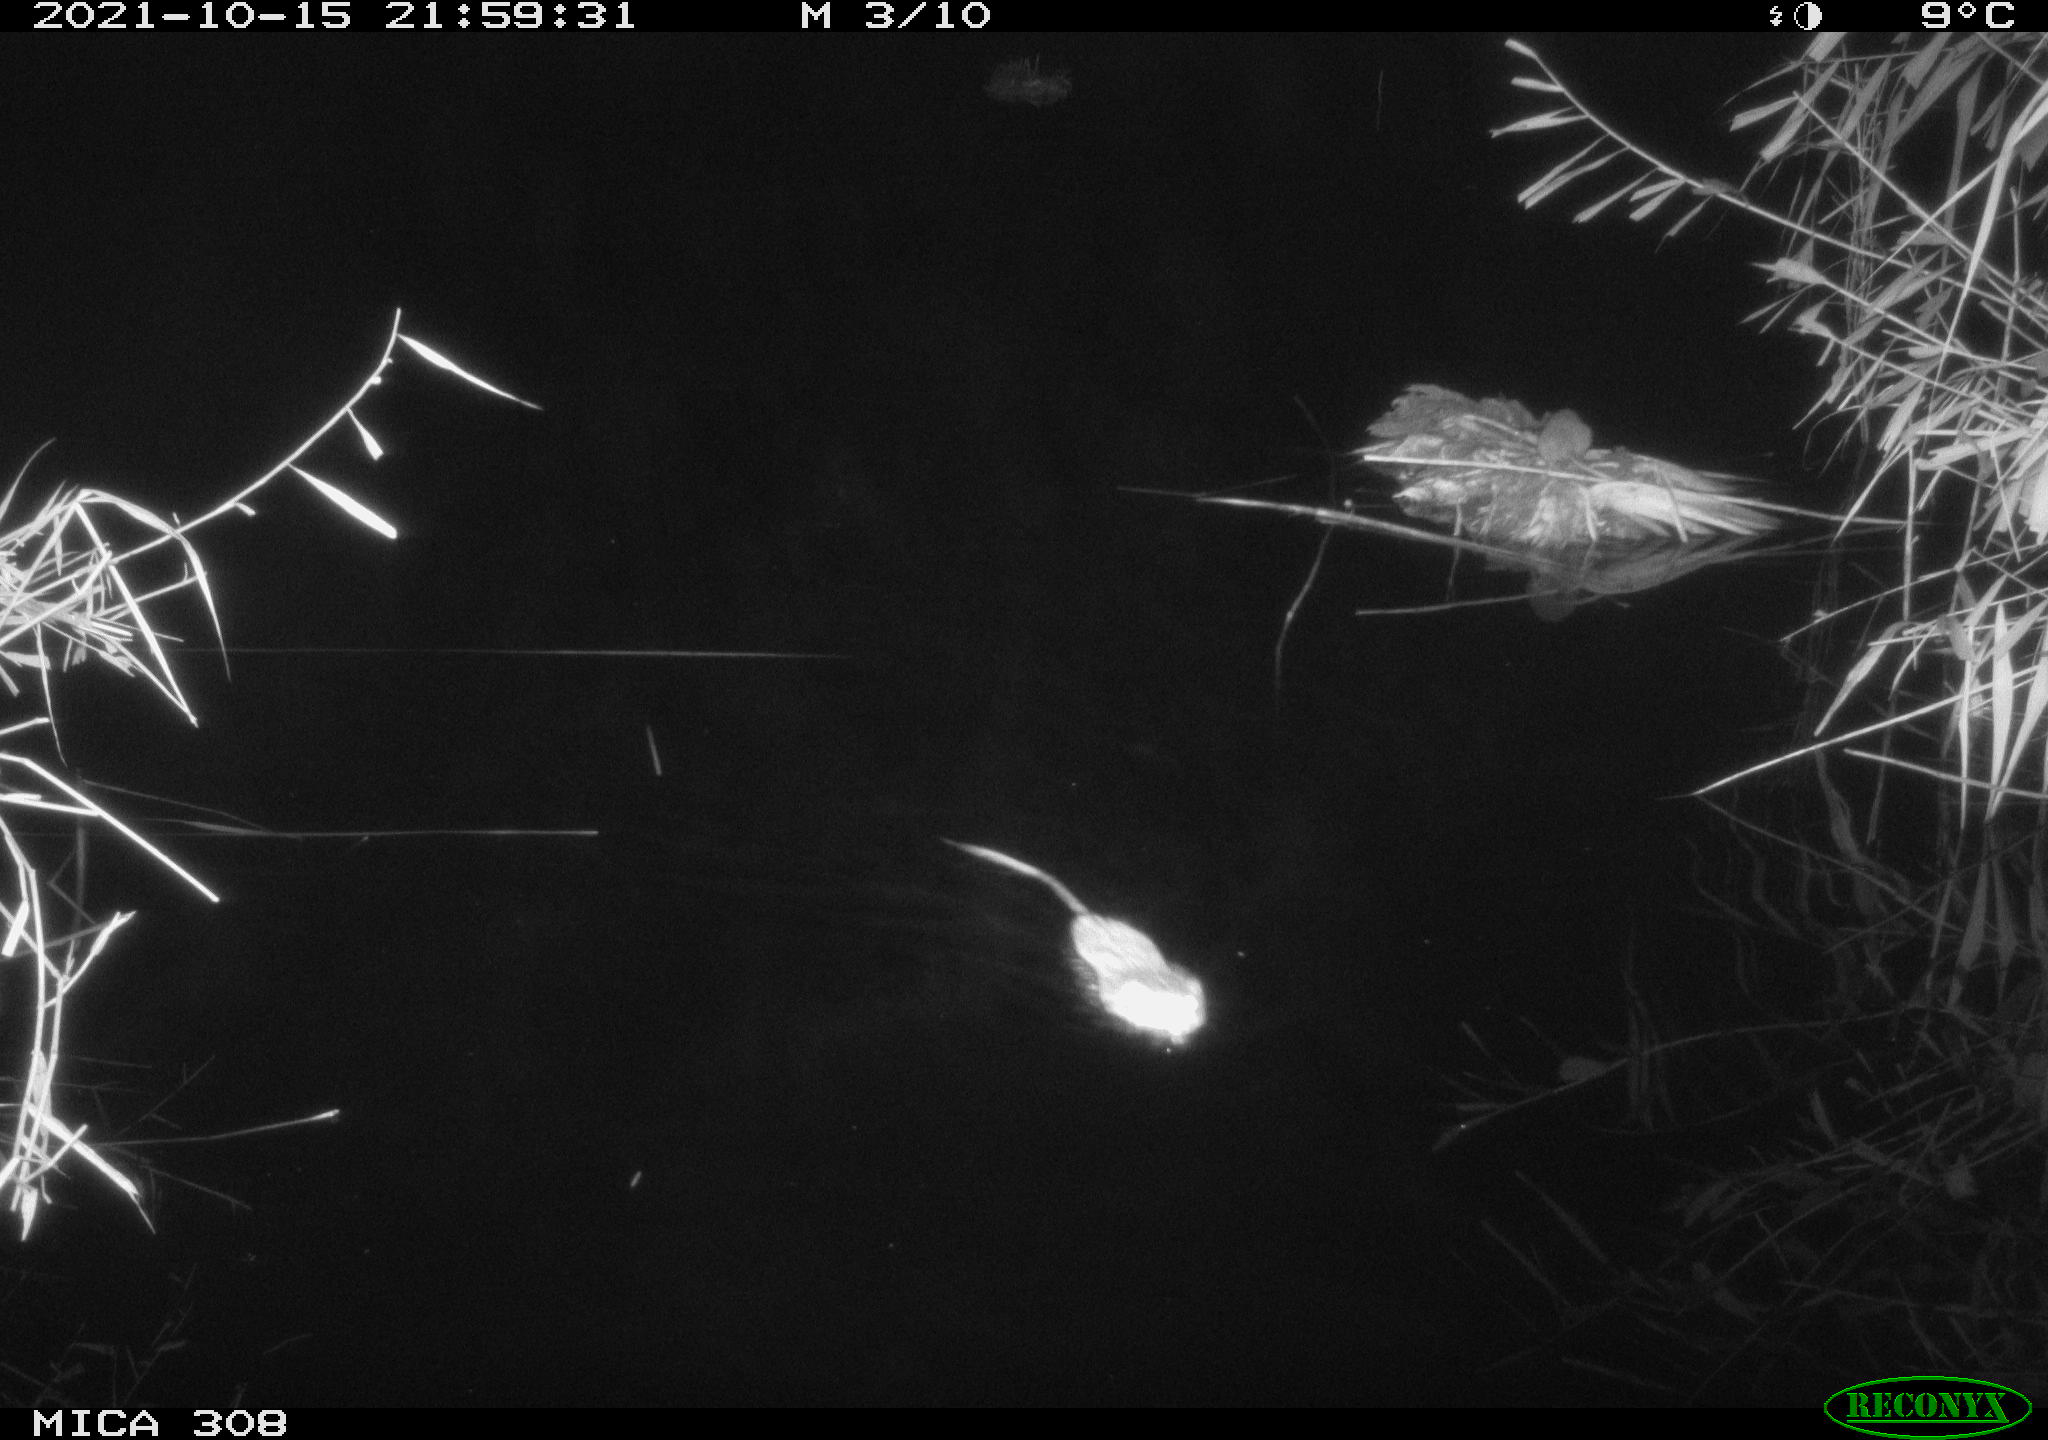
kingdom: Animalia
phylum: Chordata
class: Mammalia
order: Rodentia
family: Cricetidae
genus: Ondatra
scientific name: Ondatra zibethicus
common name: Muskrat
